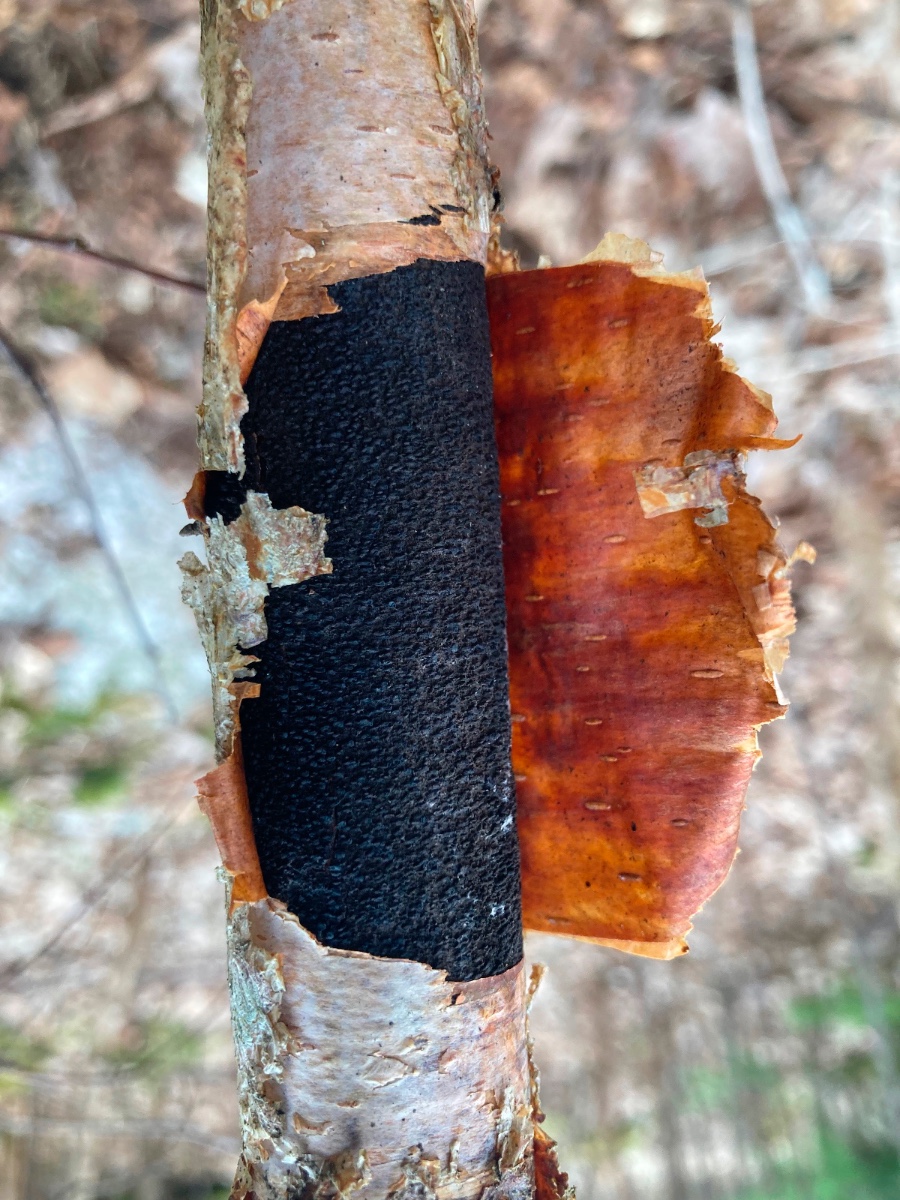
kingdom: Fungi
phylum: Ascomycota
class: Sordariomycetes
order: Diaporthales
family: Gnomoniaceae
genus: Xenotypa
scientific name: Xenotypa aterrima
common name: Birch bark stripper
